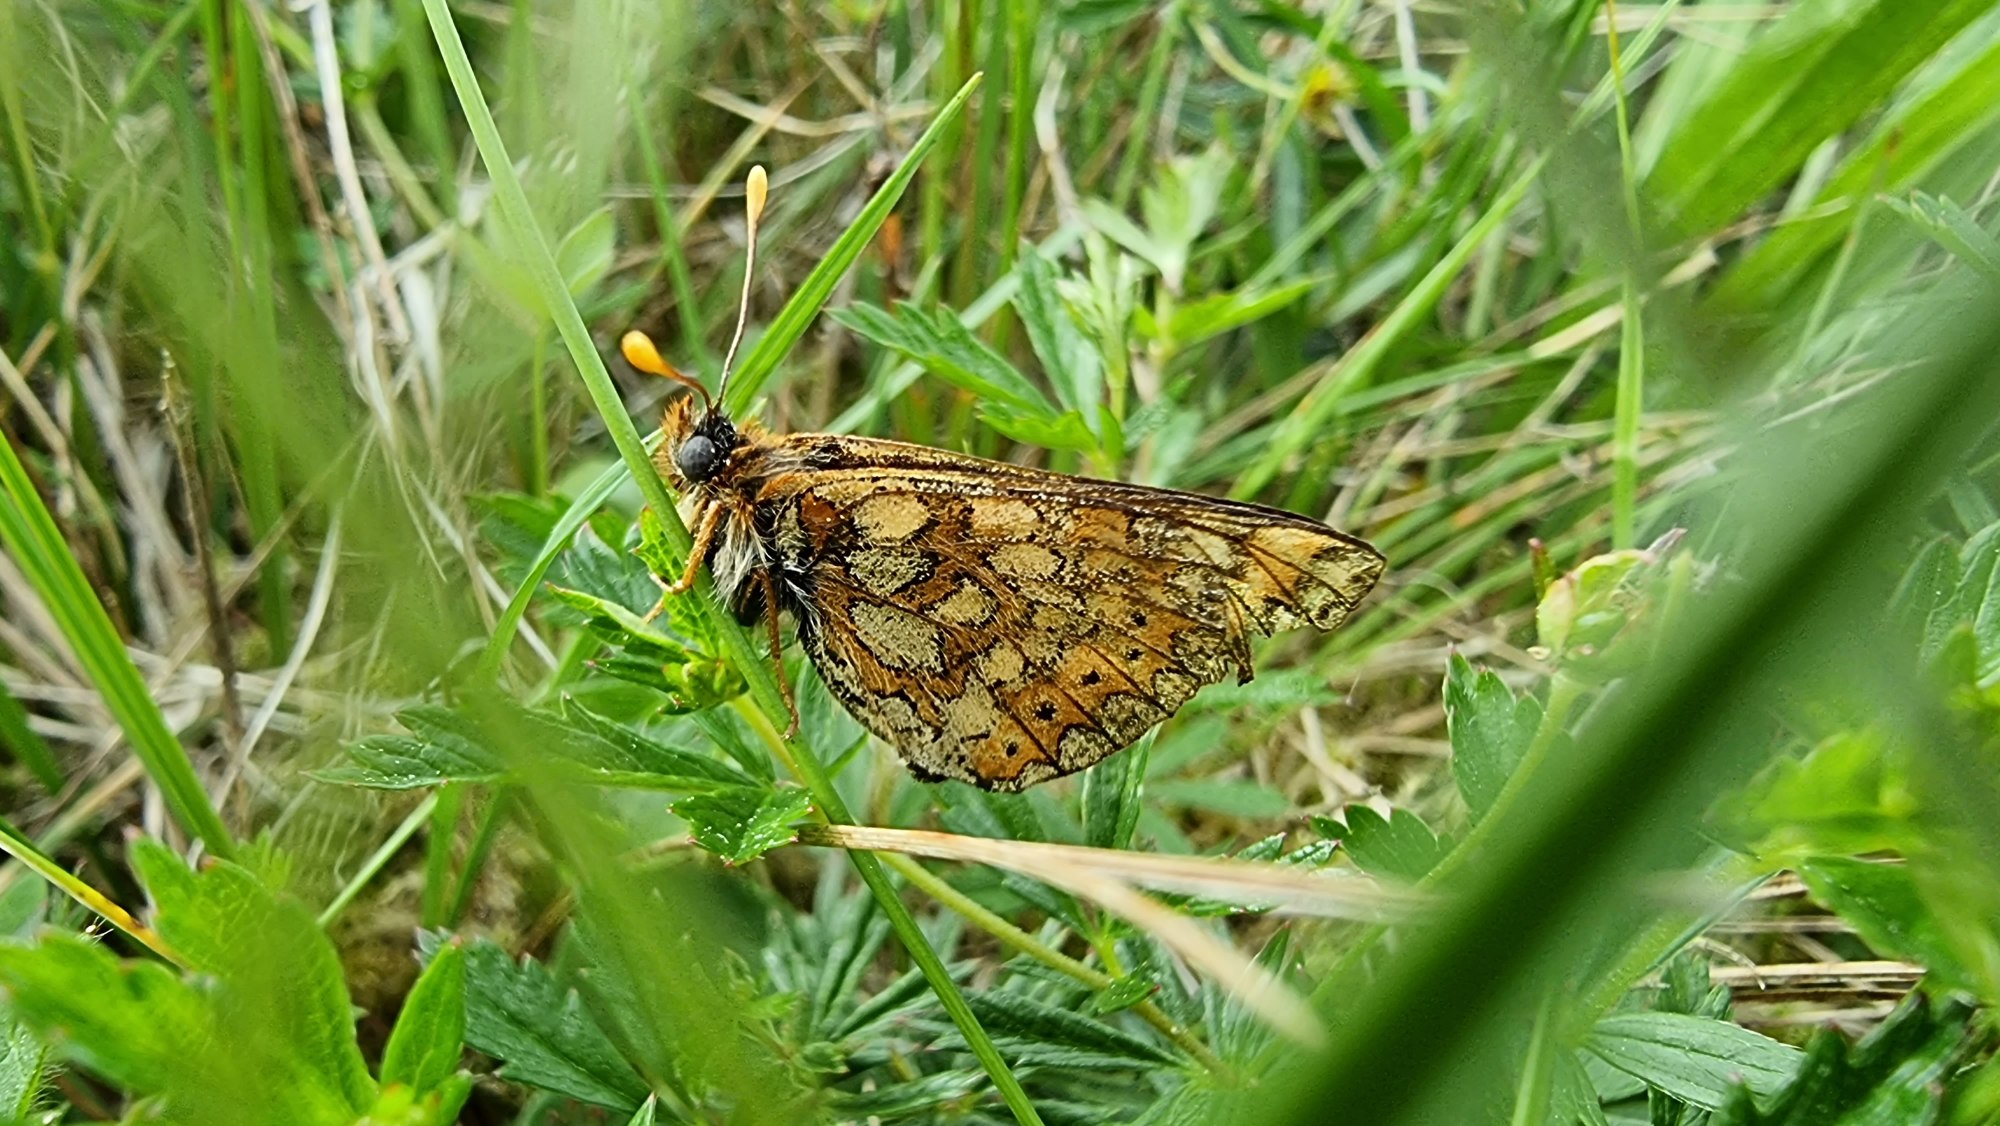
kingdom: Animalia
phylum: Arthropoda
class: Insecta
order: Lepidoptera
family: Nymphalidae
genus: Euphydryas
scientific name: Euphydryas aurinia
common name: Hedepletvinge
